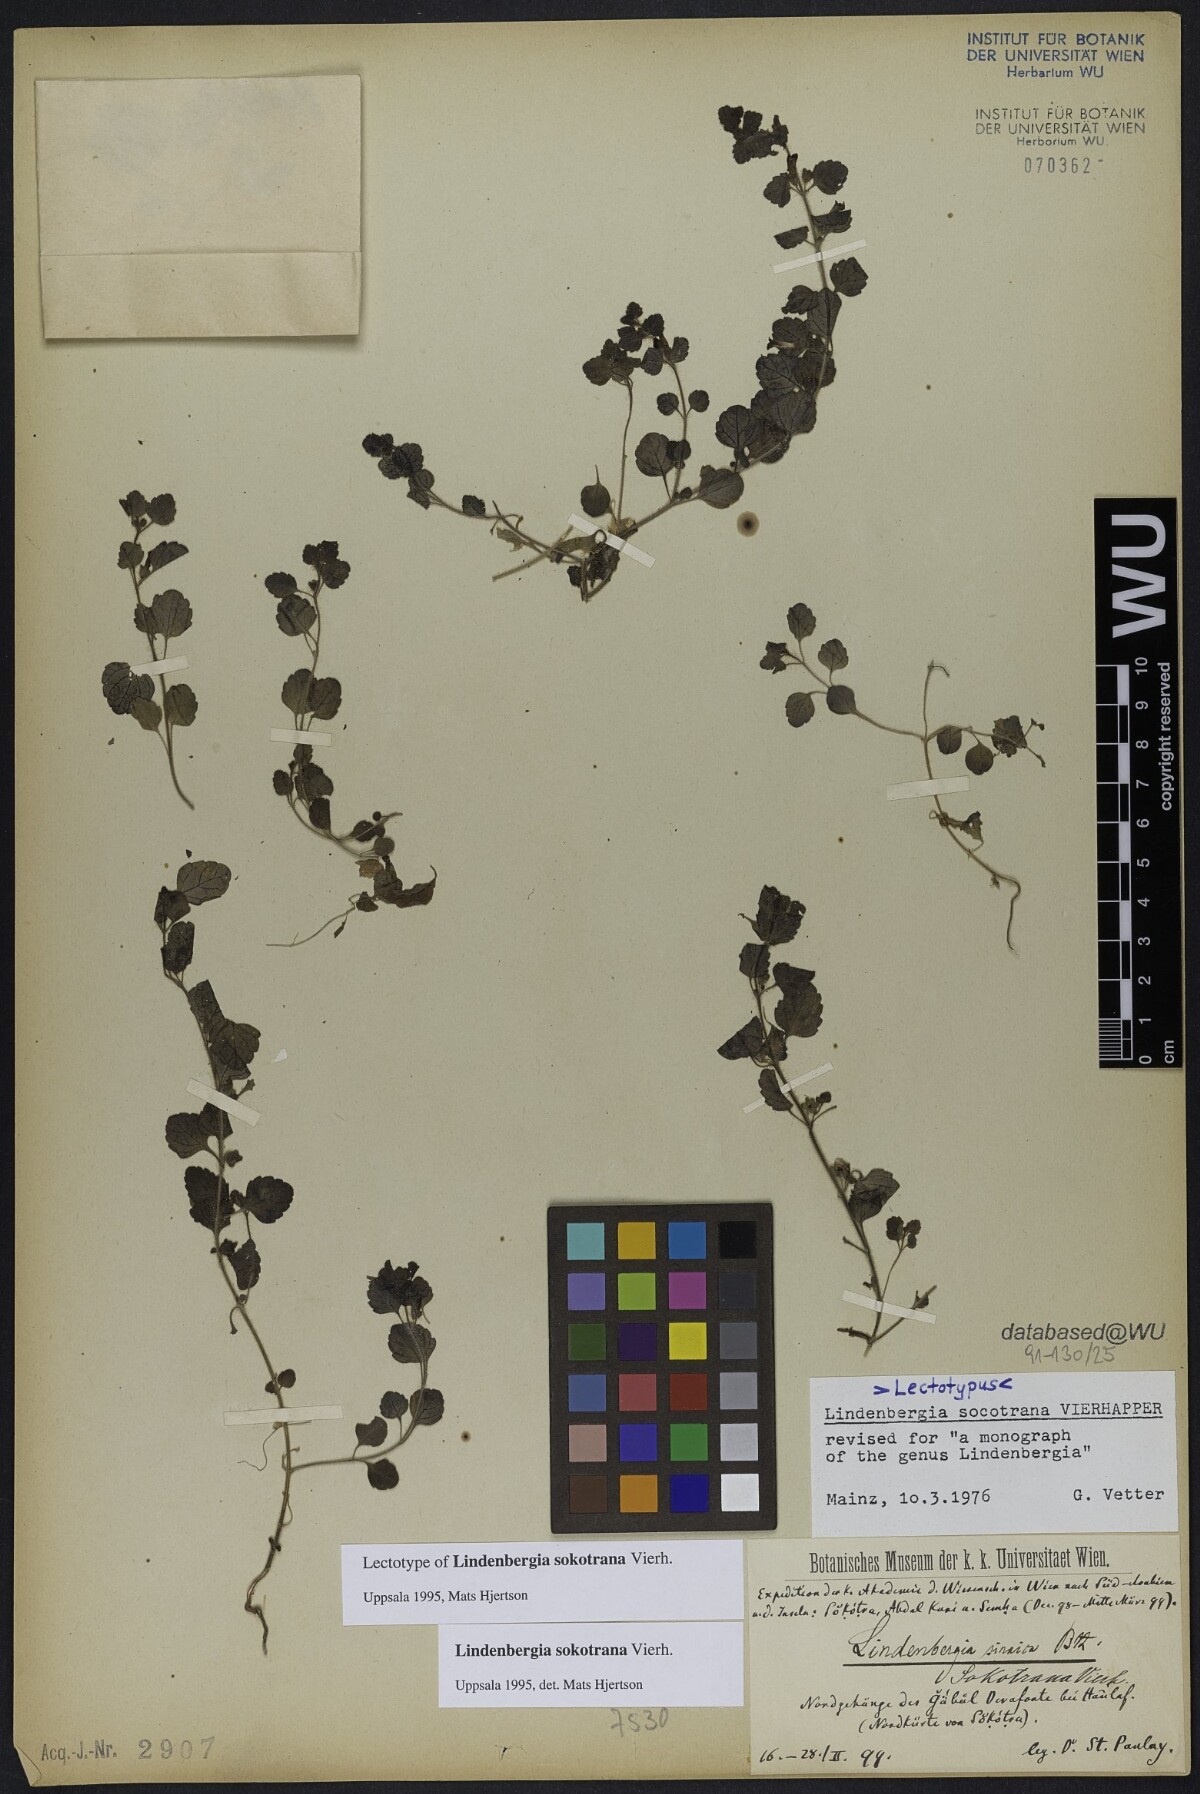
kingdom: Plantae
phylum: Tracheophyta
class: Magnoliopsida
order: Lamiales
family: Orobanchaceae
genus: Lindenbergia
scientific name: Lindenbergia sokotrana
